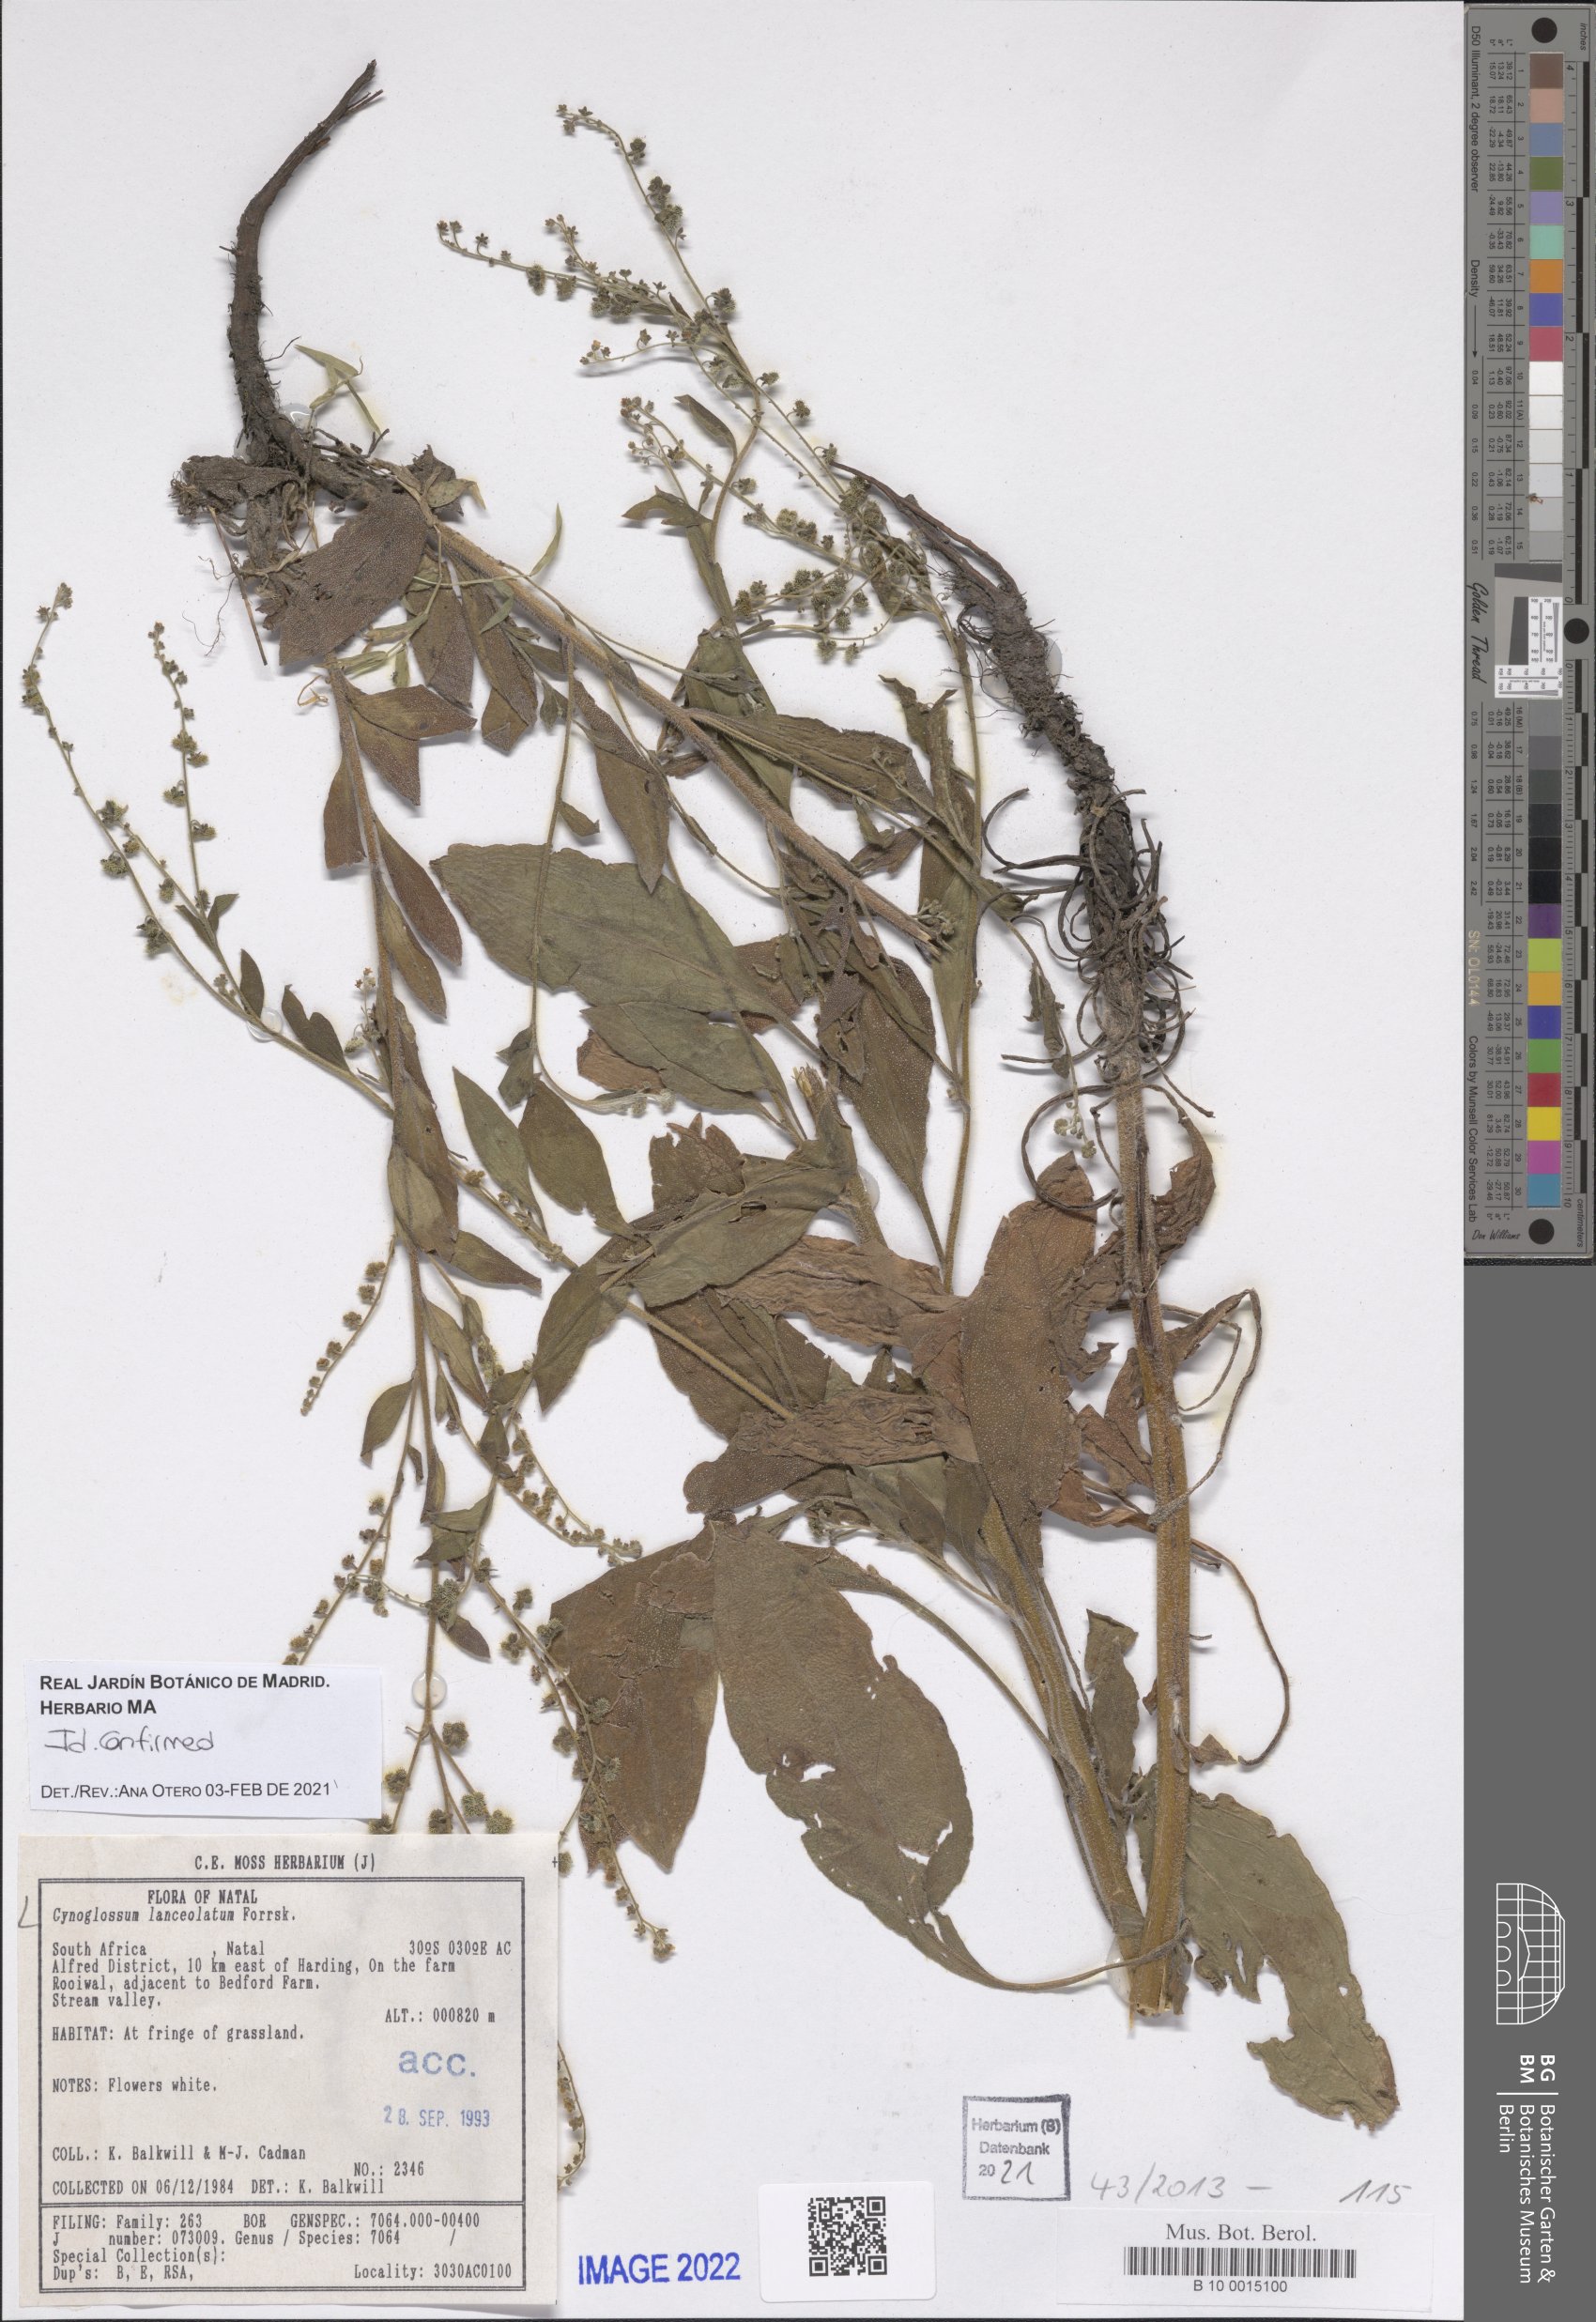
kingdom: Plantae
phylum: Tracheophyta
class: Magnoliopsida
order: Boraginales
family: Boraginaceae
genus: Paracynoglossum
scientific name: Paracynoglossum lanceolatum
